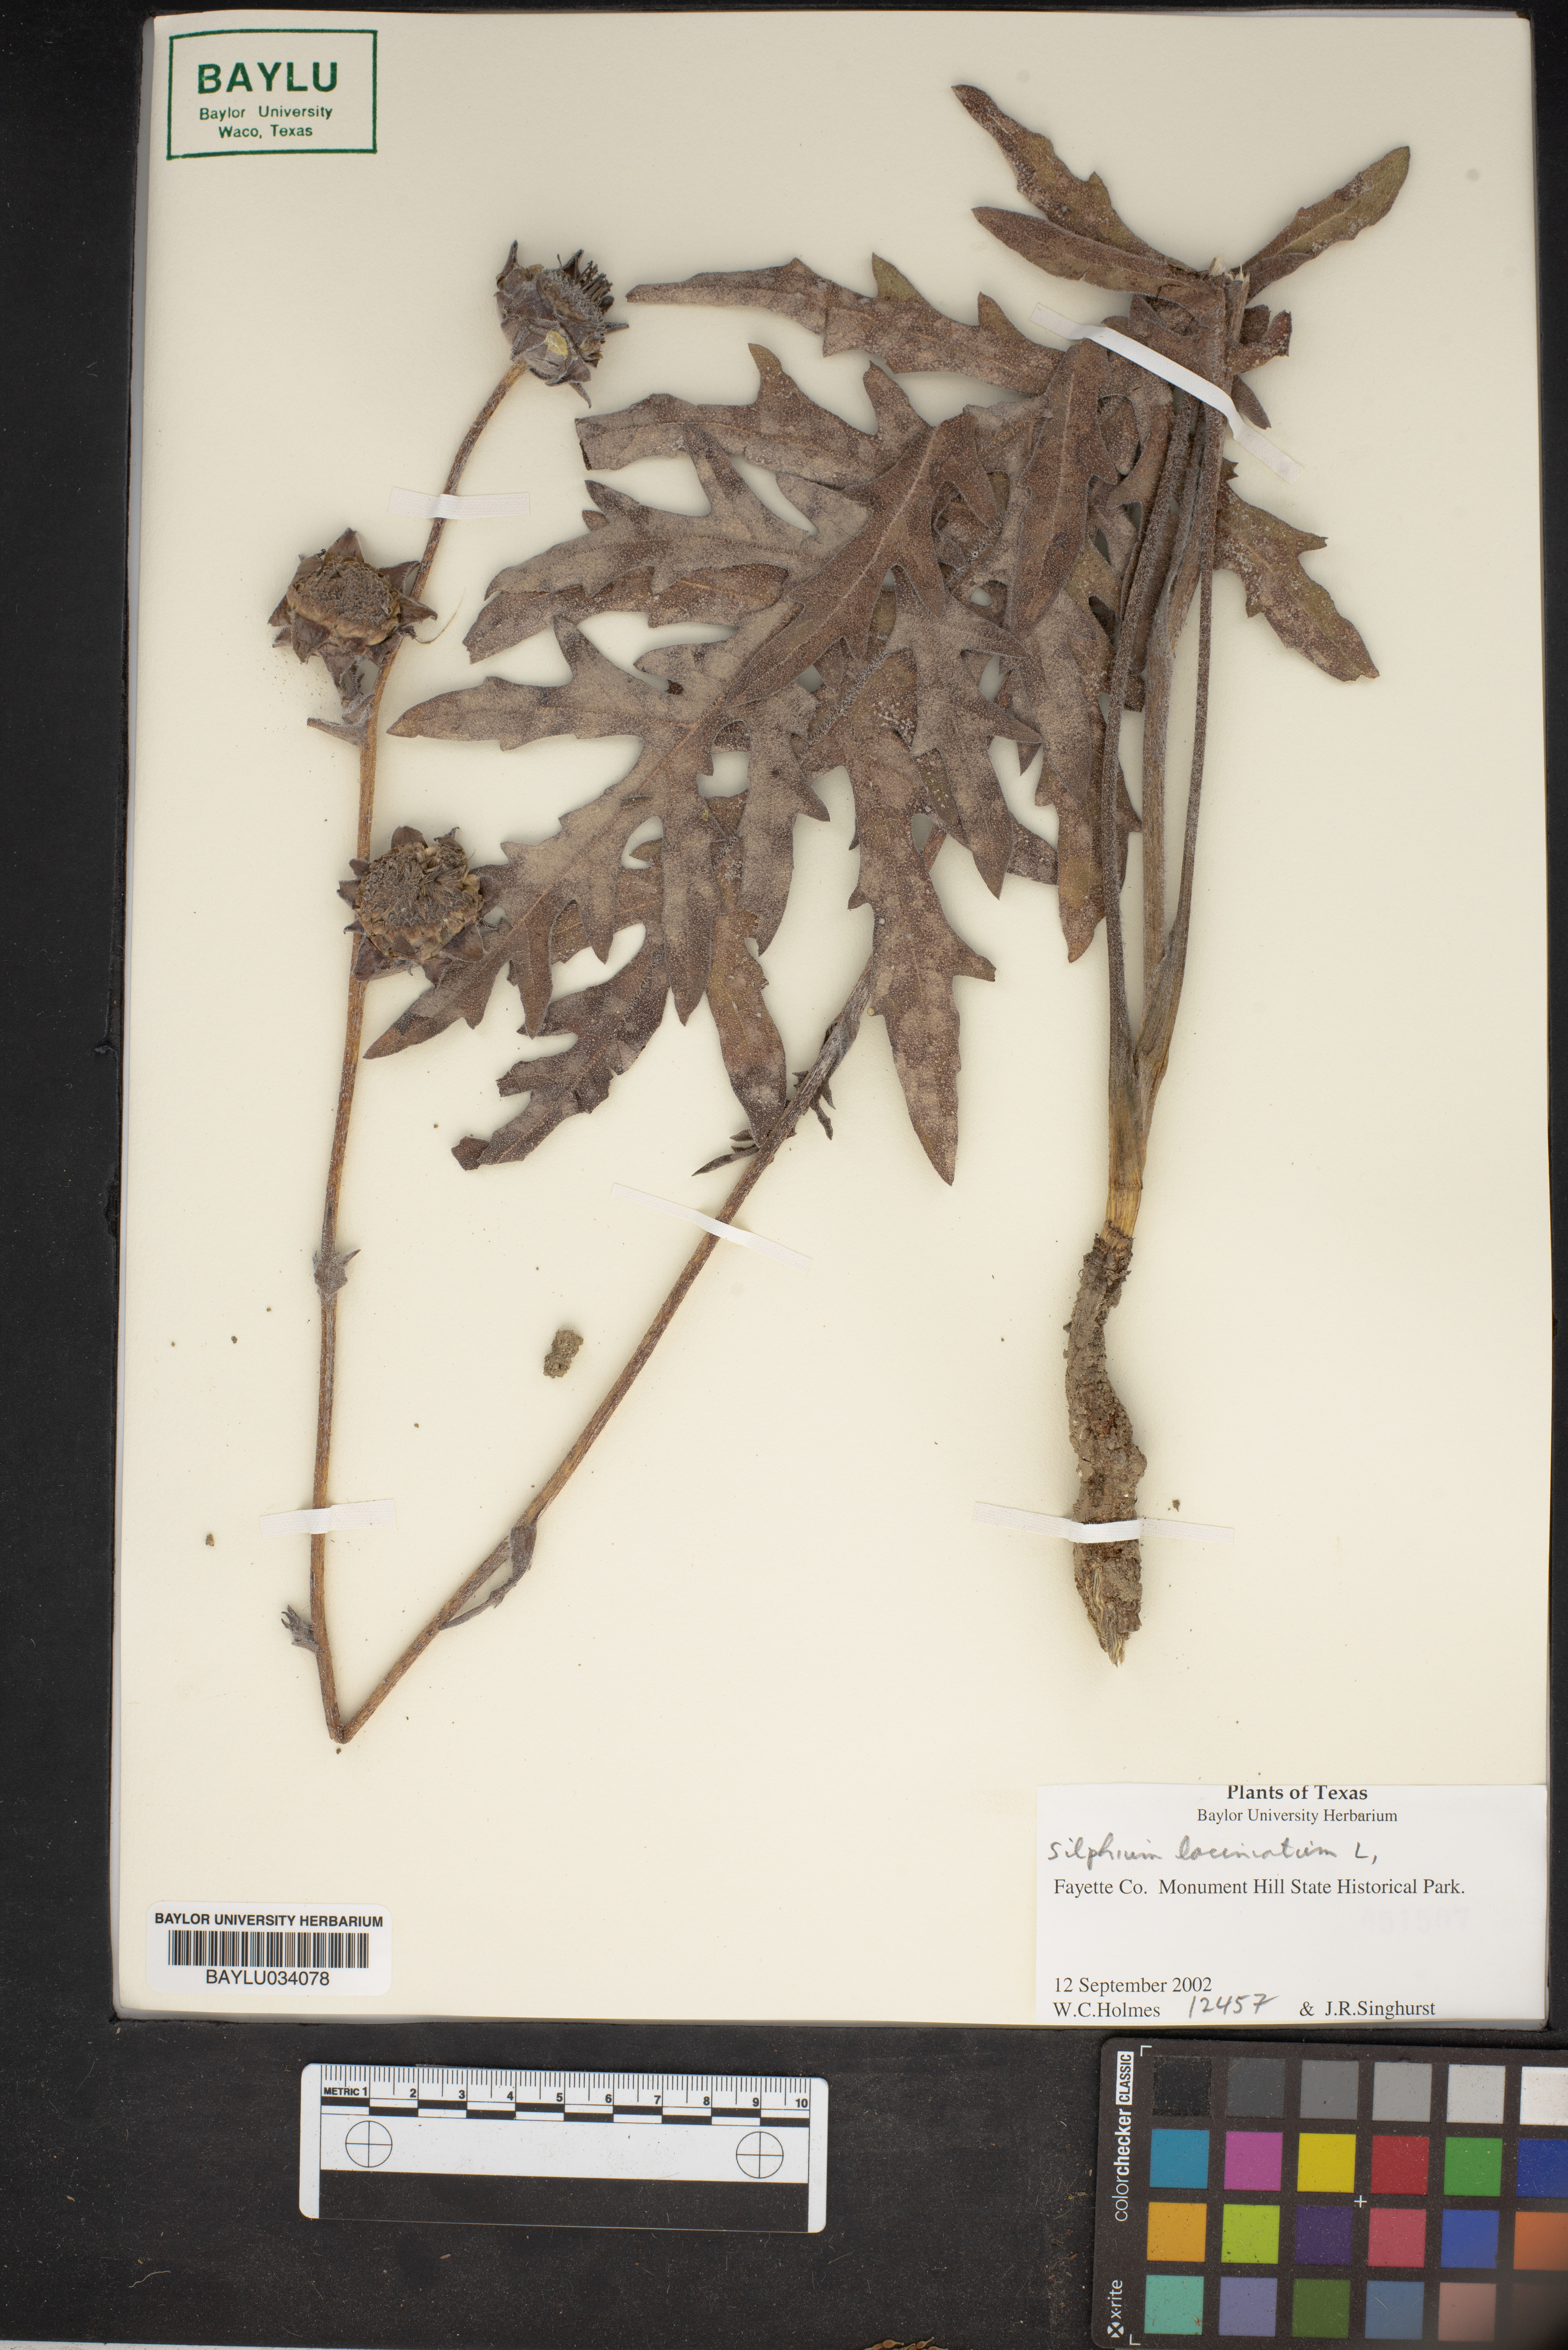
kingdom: Plantae
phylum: Tracheophyta
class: Magnoliopsida
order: Asterales
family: Asteraceae
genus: Silphium
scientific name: Silphium laciniatum
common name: Polarplant
